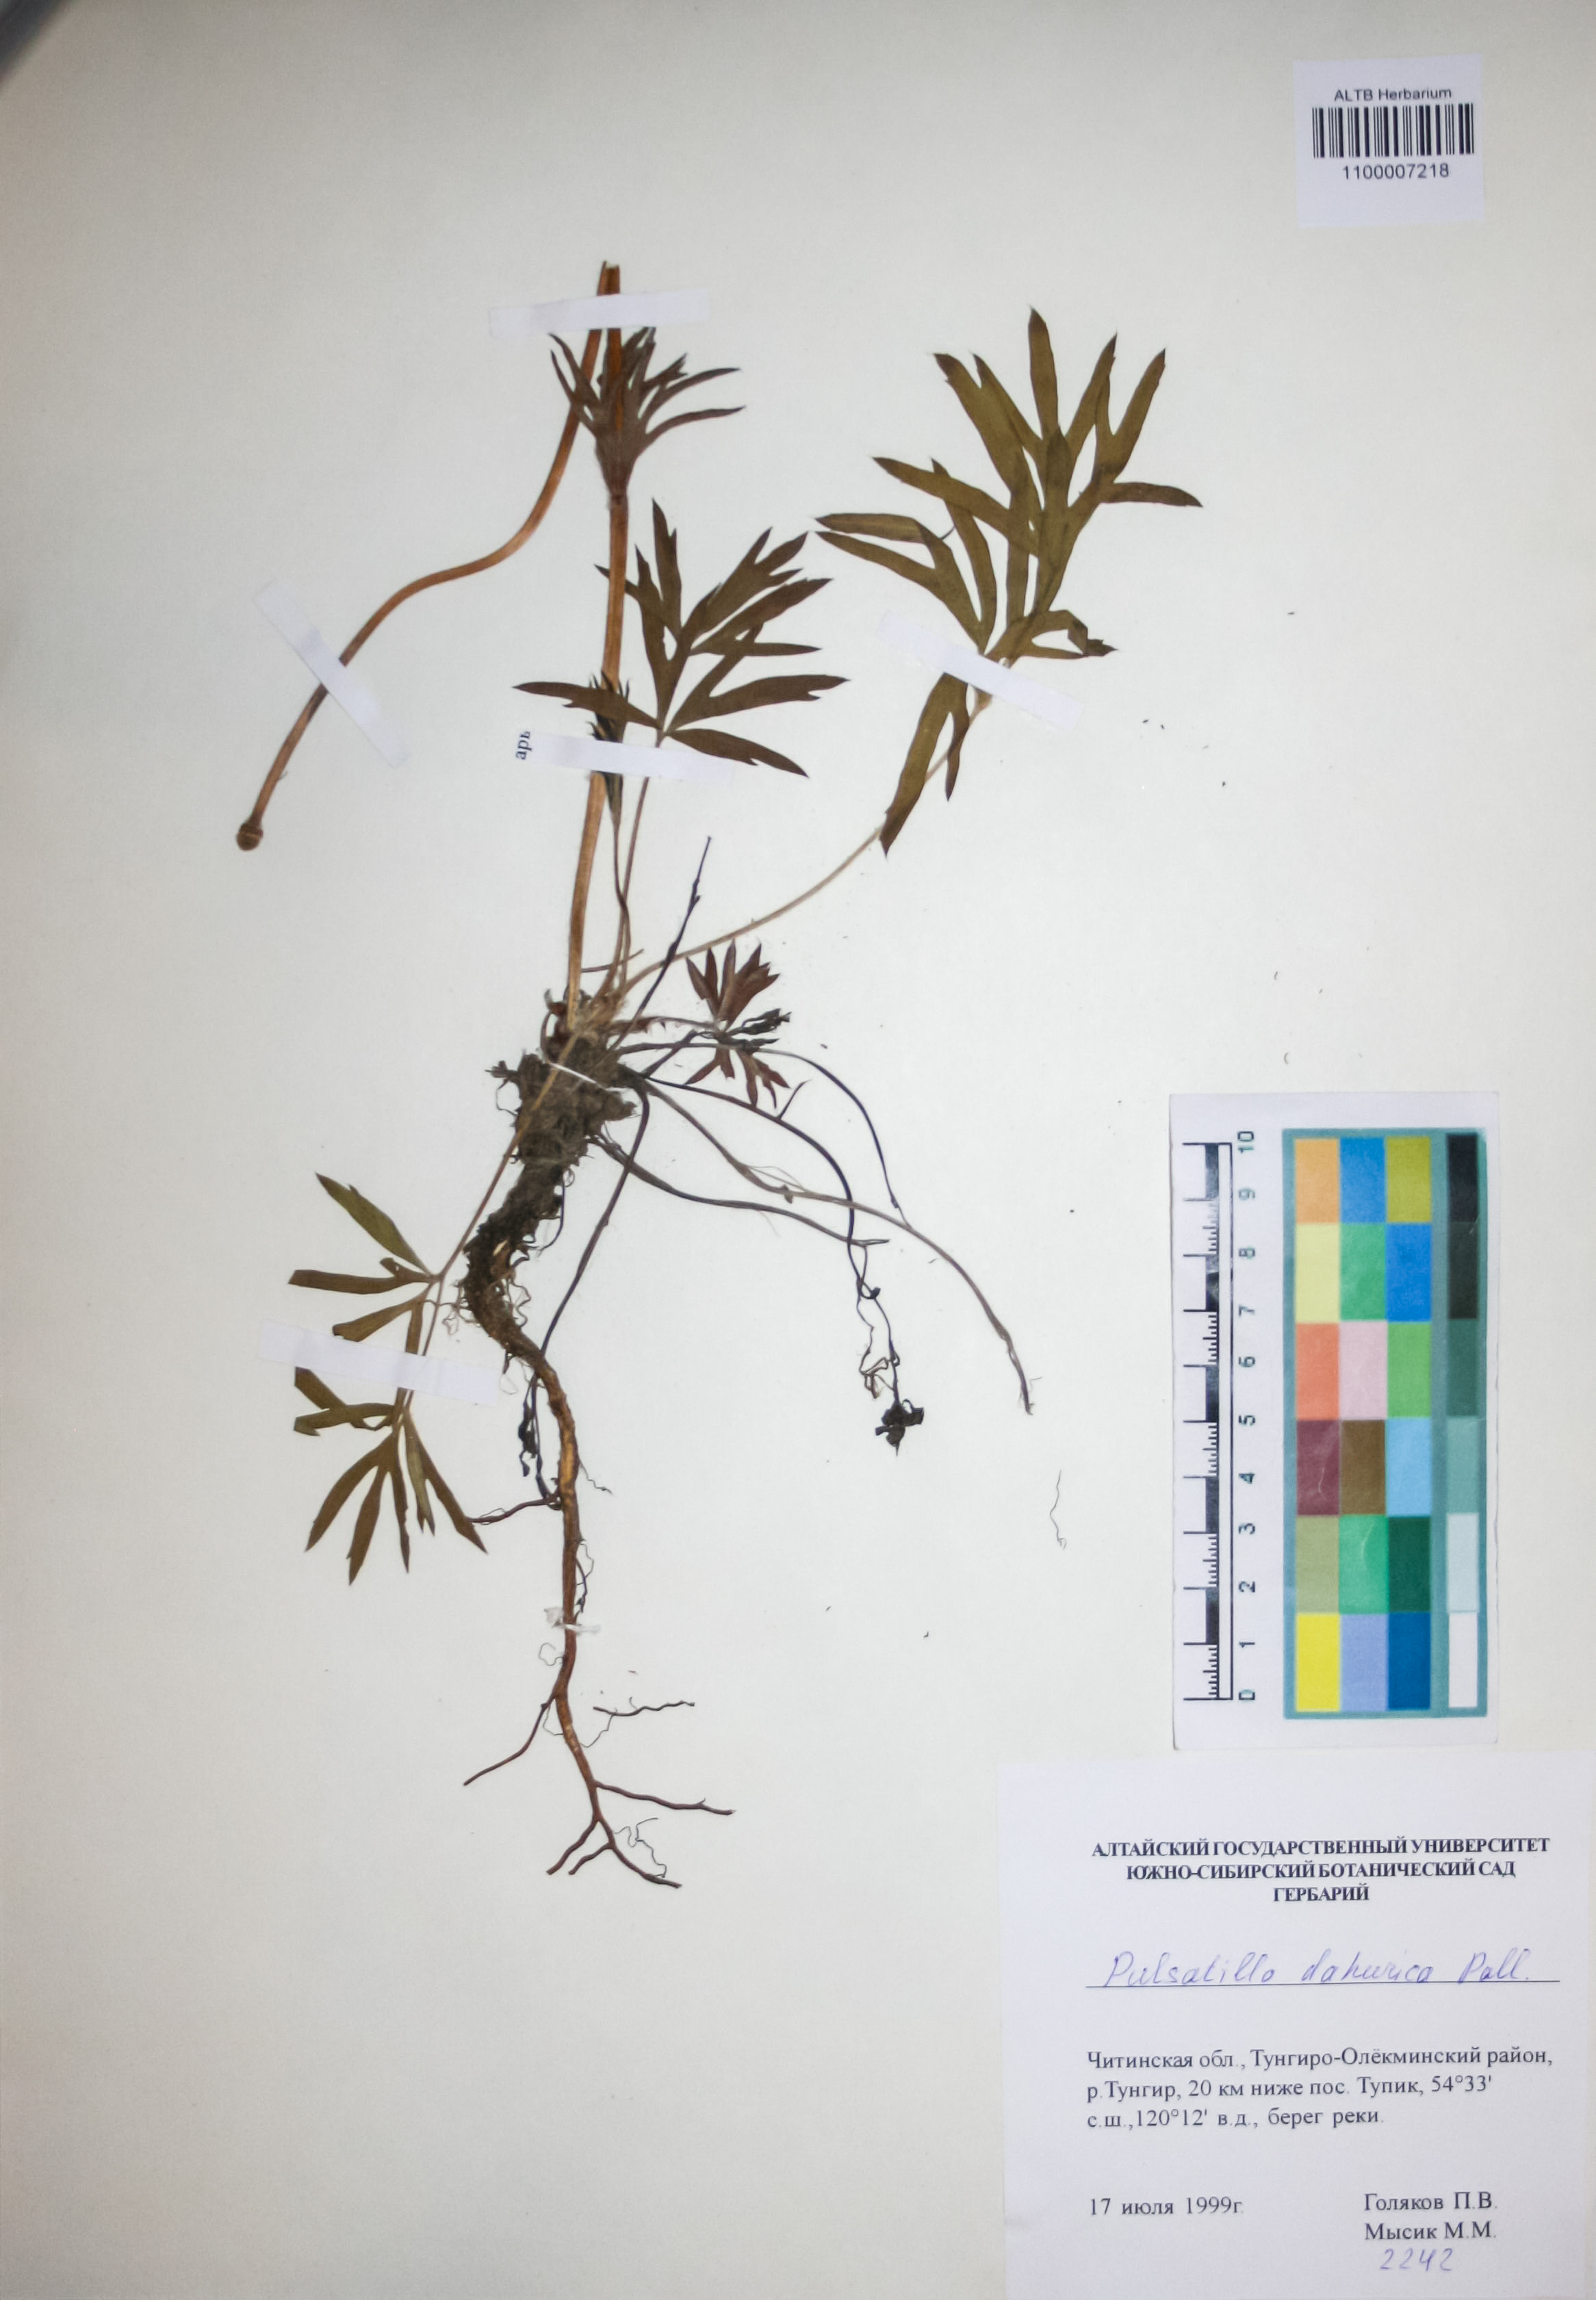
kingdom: Plantae
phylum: Tracheophyta
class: Magnoliopsida
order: Ranunculales
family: Ranunculaceae
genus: Pulsatilla
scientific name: Pulsatilla dahurica
